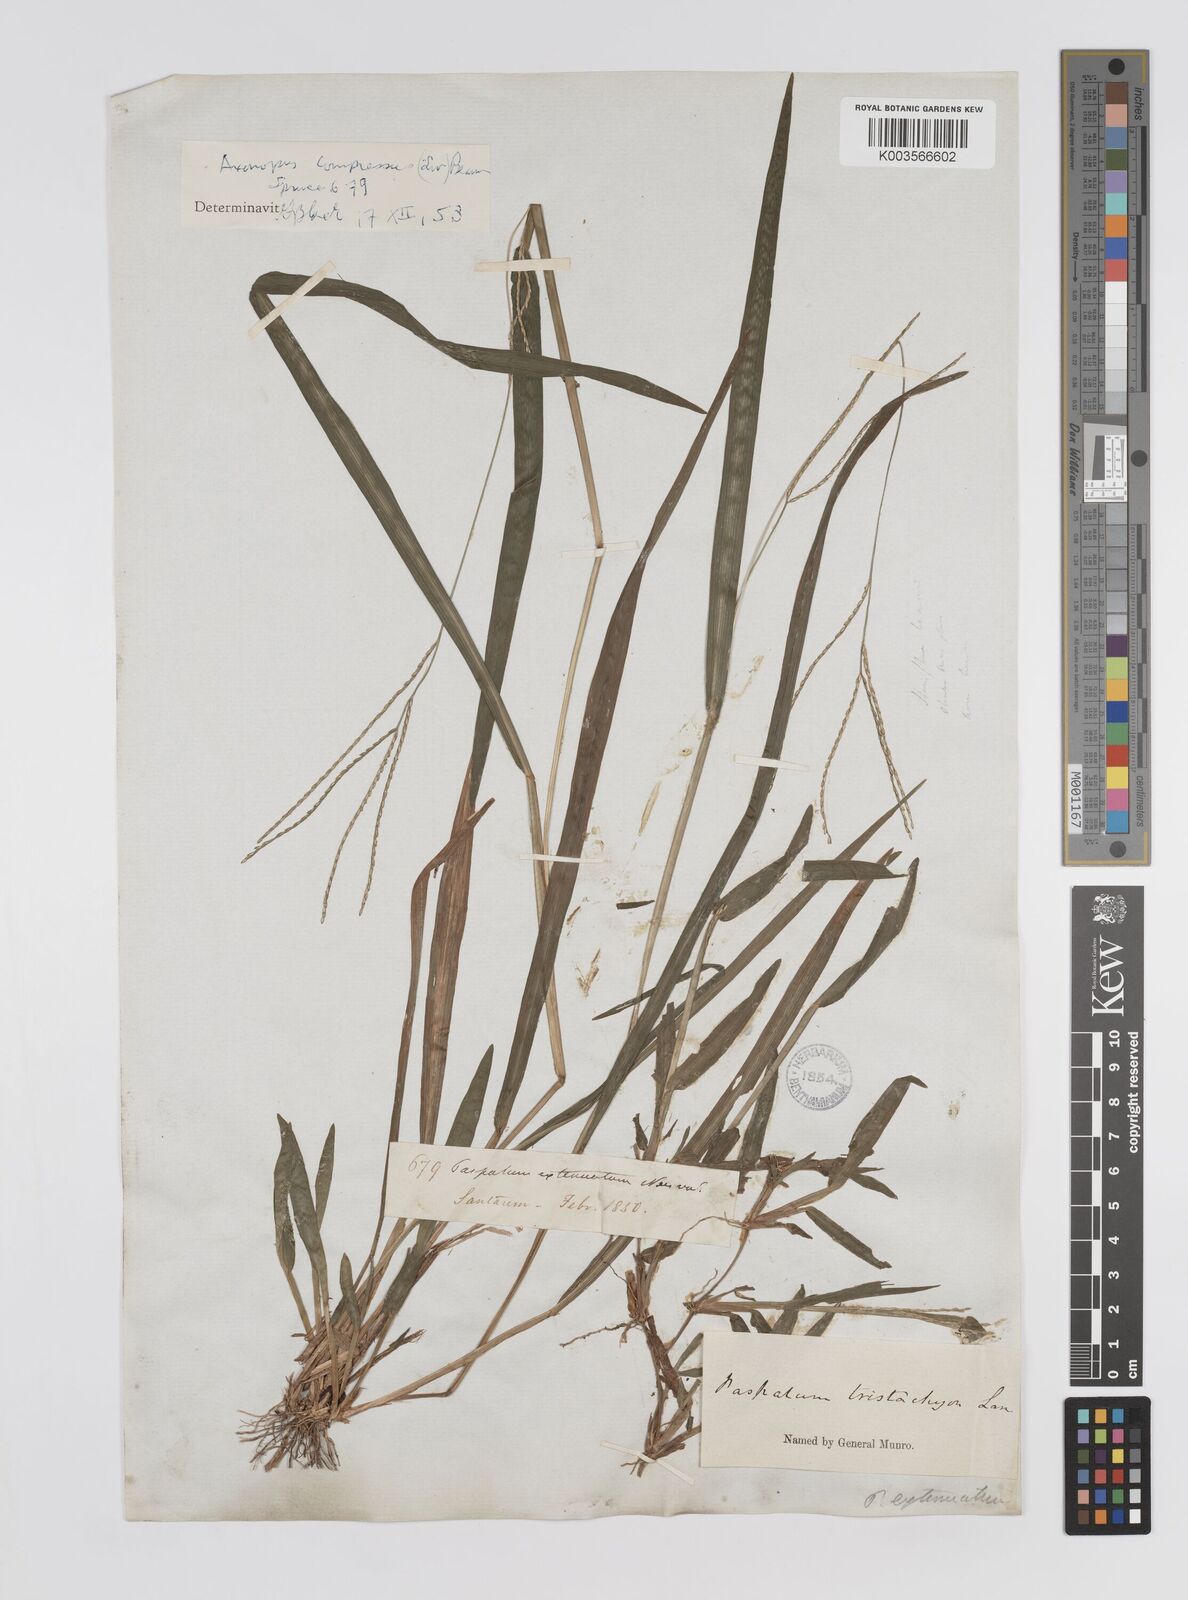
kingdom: Plantae
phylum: Tracheophyta
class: Liliopsida
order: Poales
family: Poaceae
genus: Axonopus
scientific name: Axonopus compressus
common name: American carpet grass
